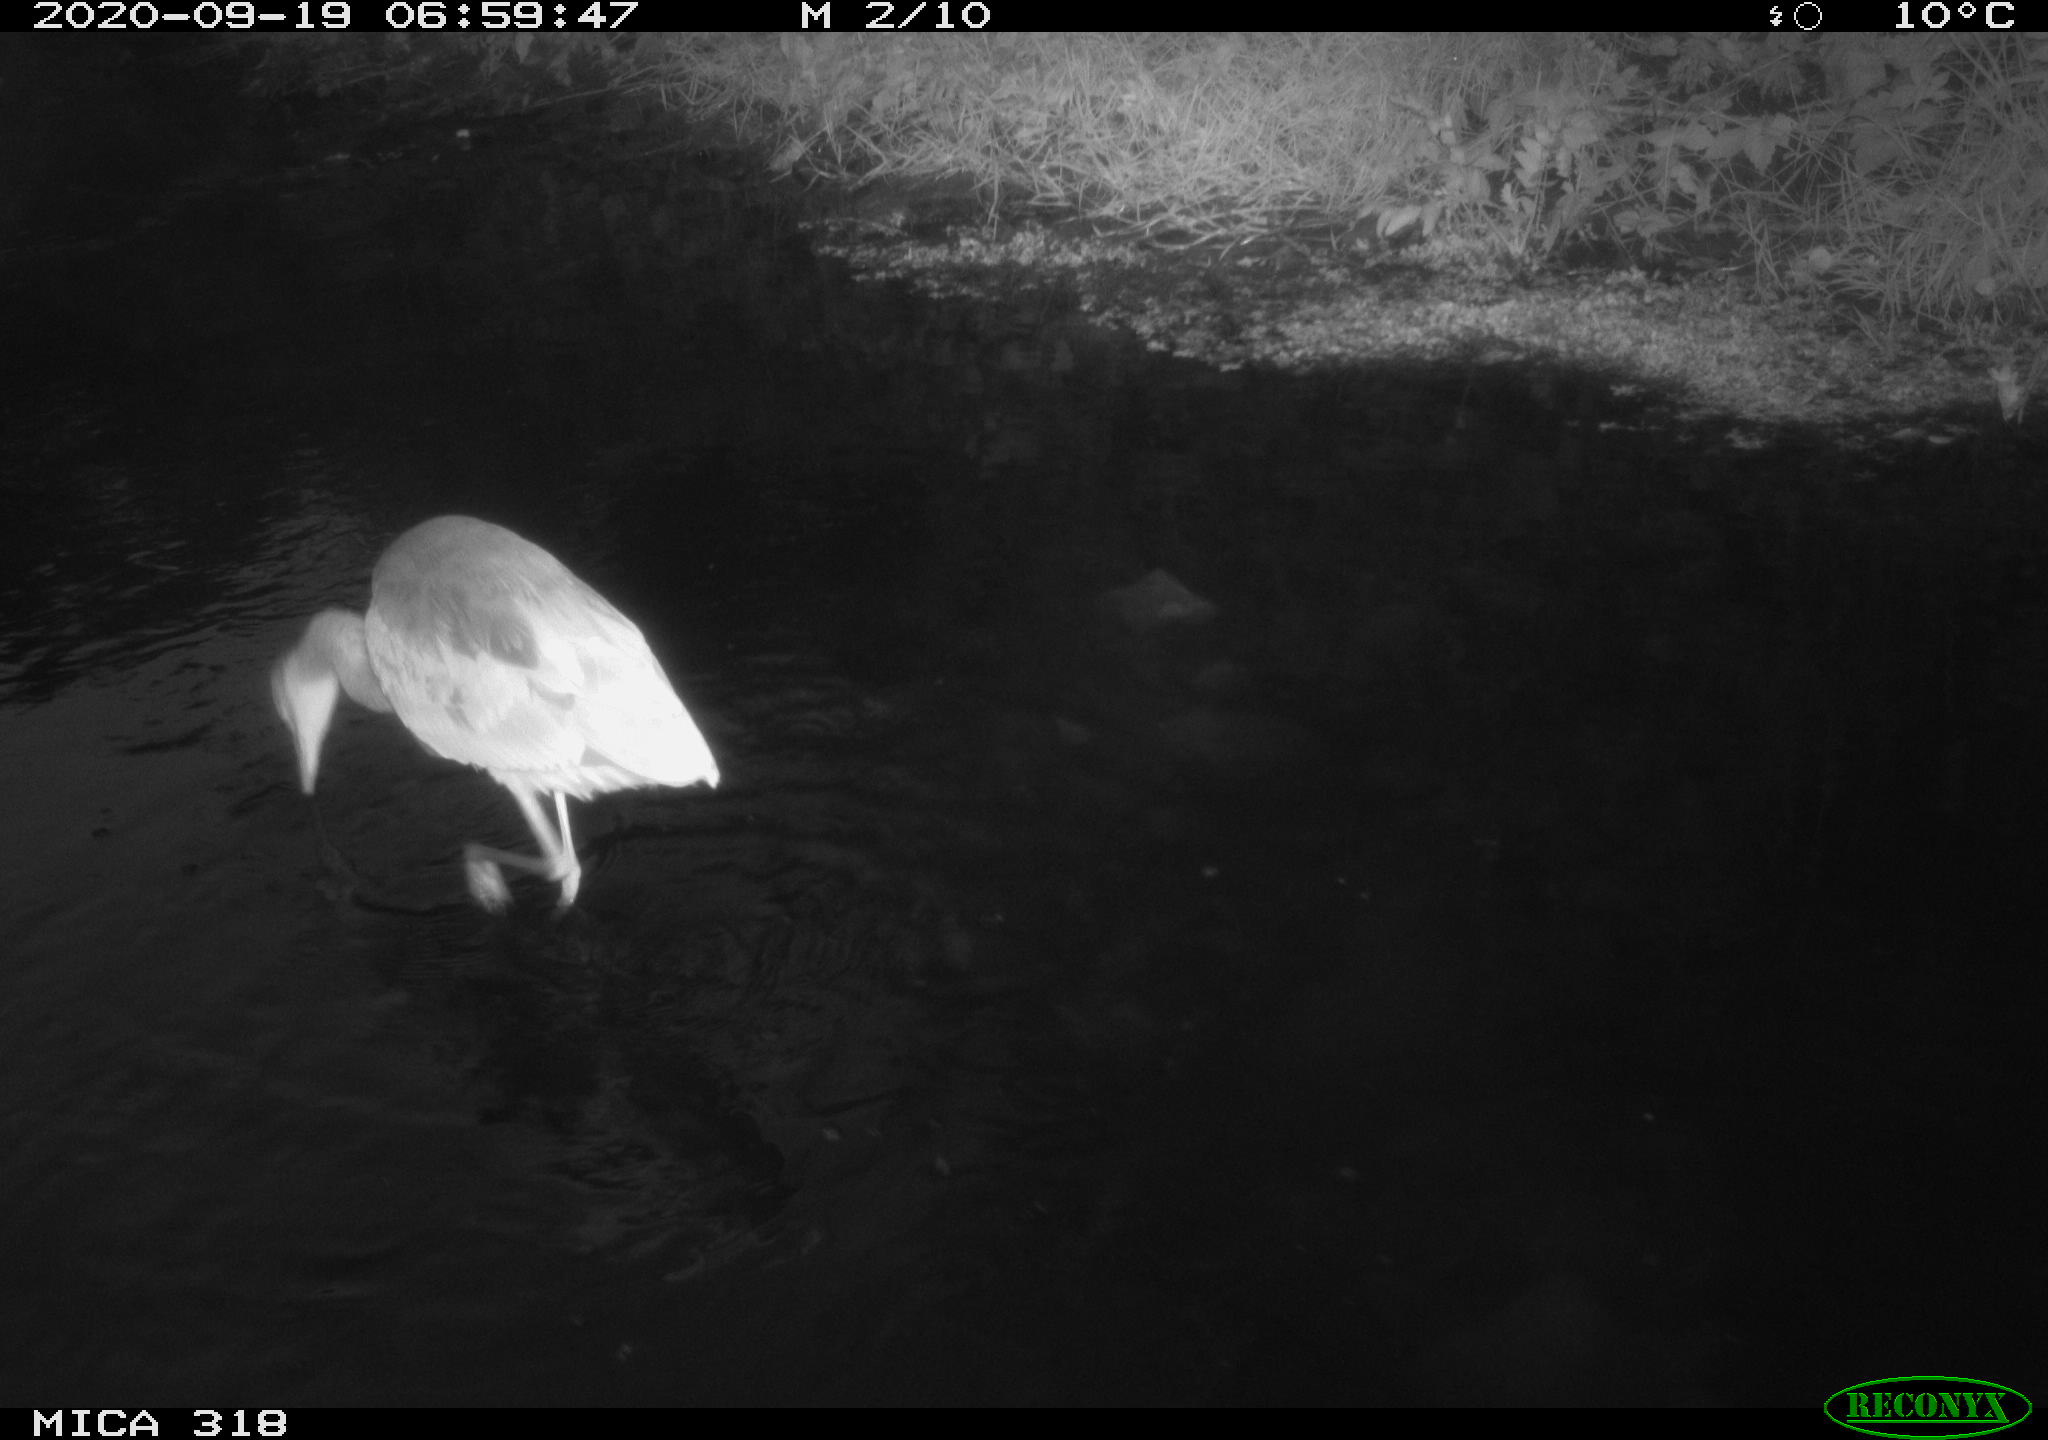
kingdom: Animalia
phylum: Chordata
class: Aves
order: Pelecaniformes
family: Ardeidae
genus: Ardea
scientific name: Ardea
